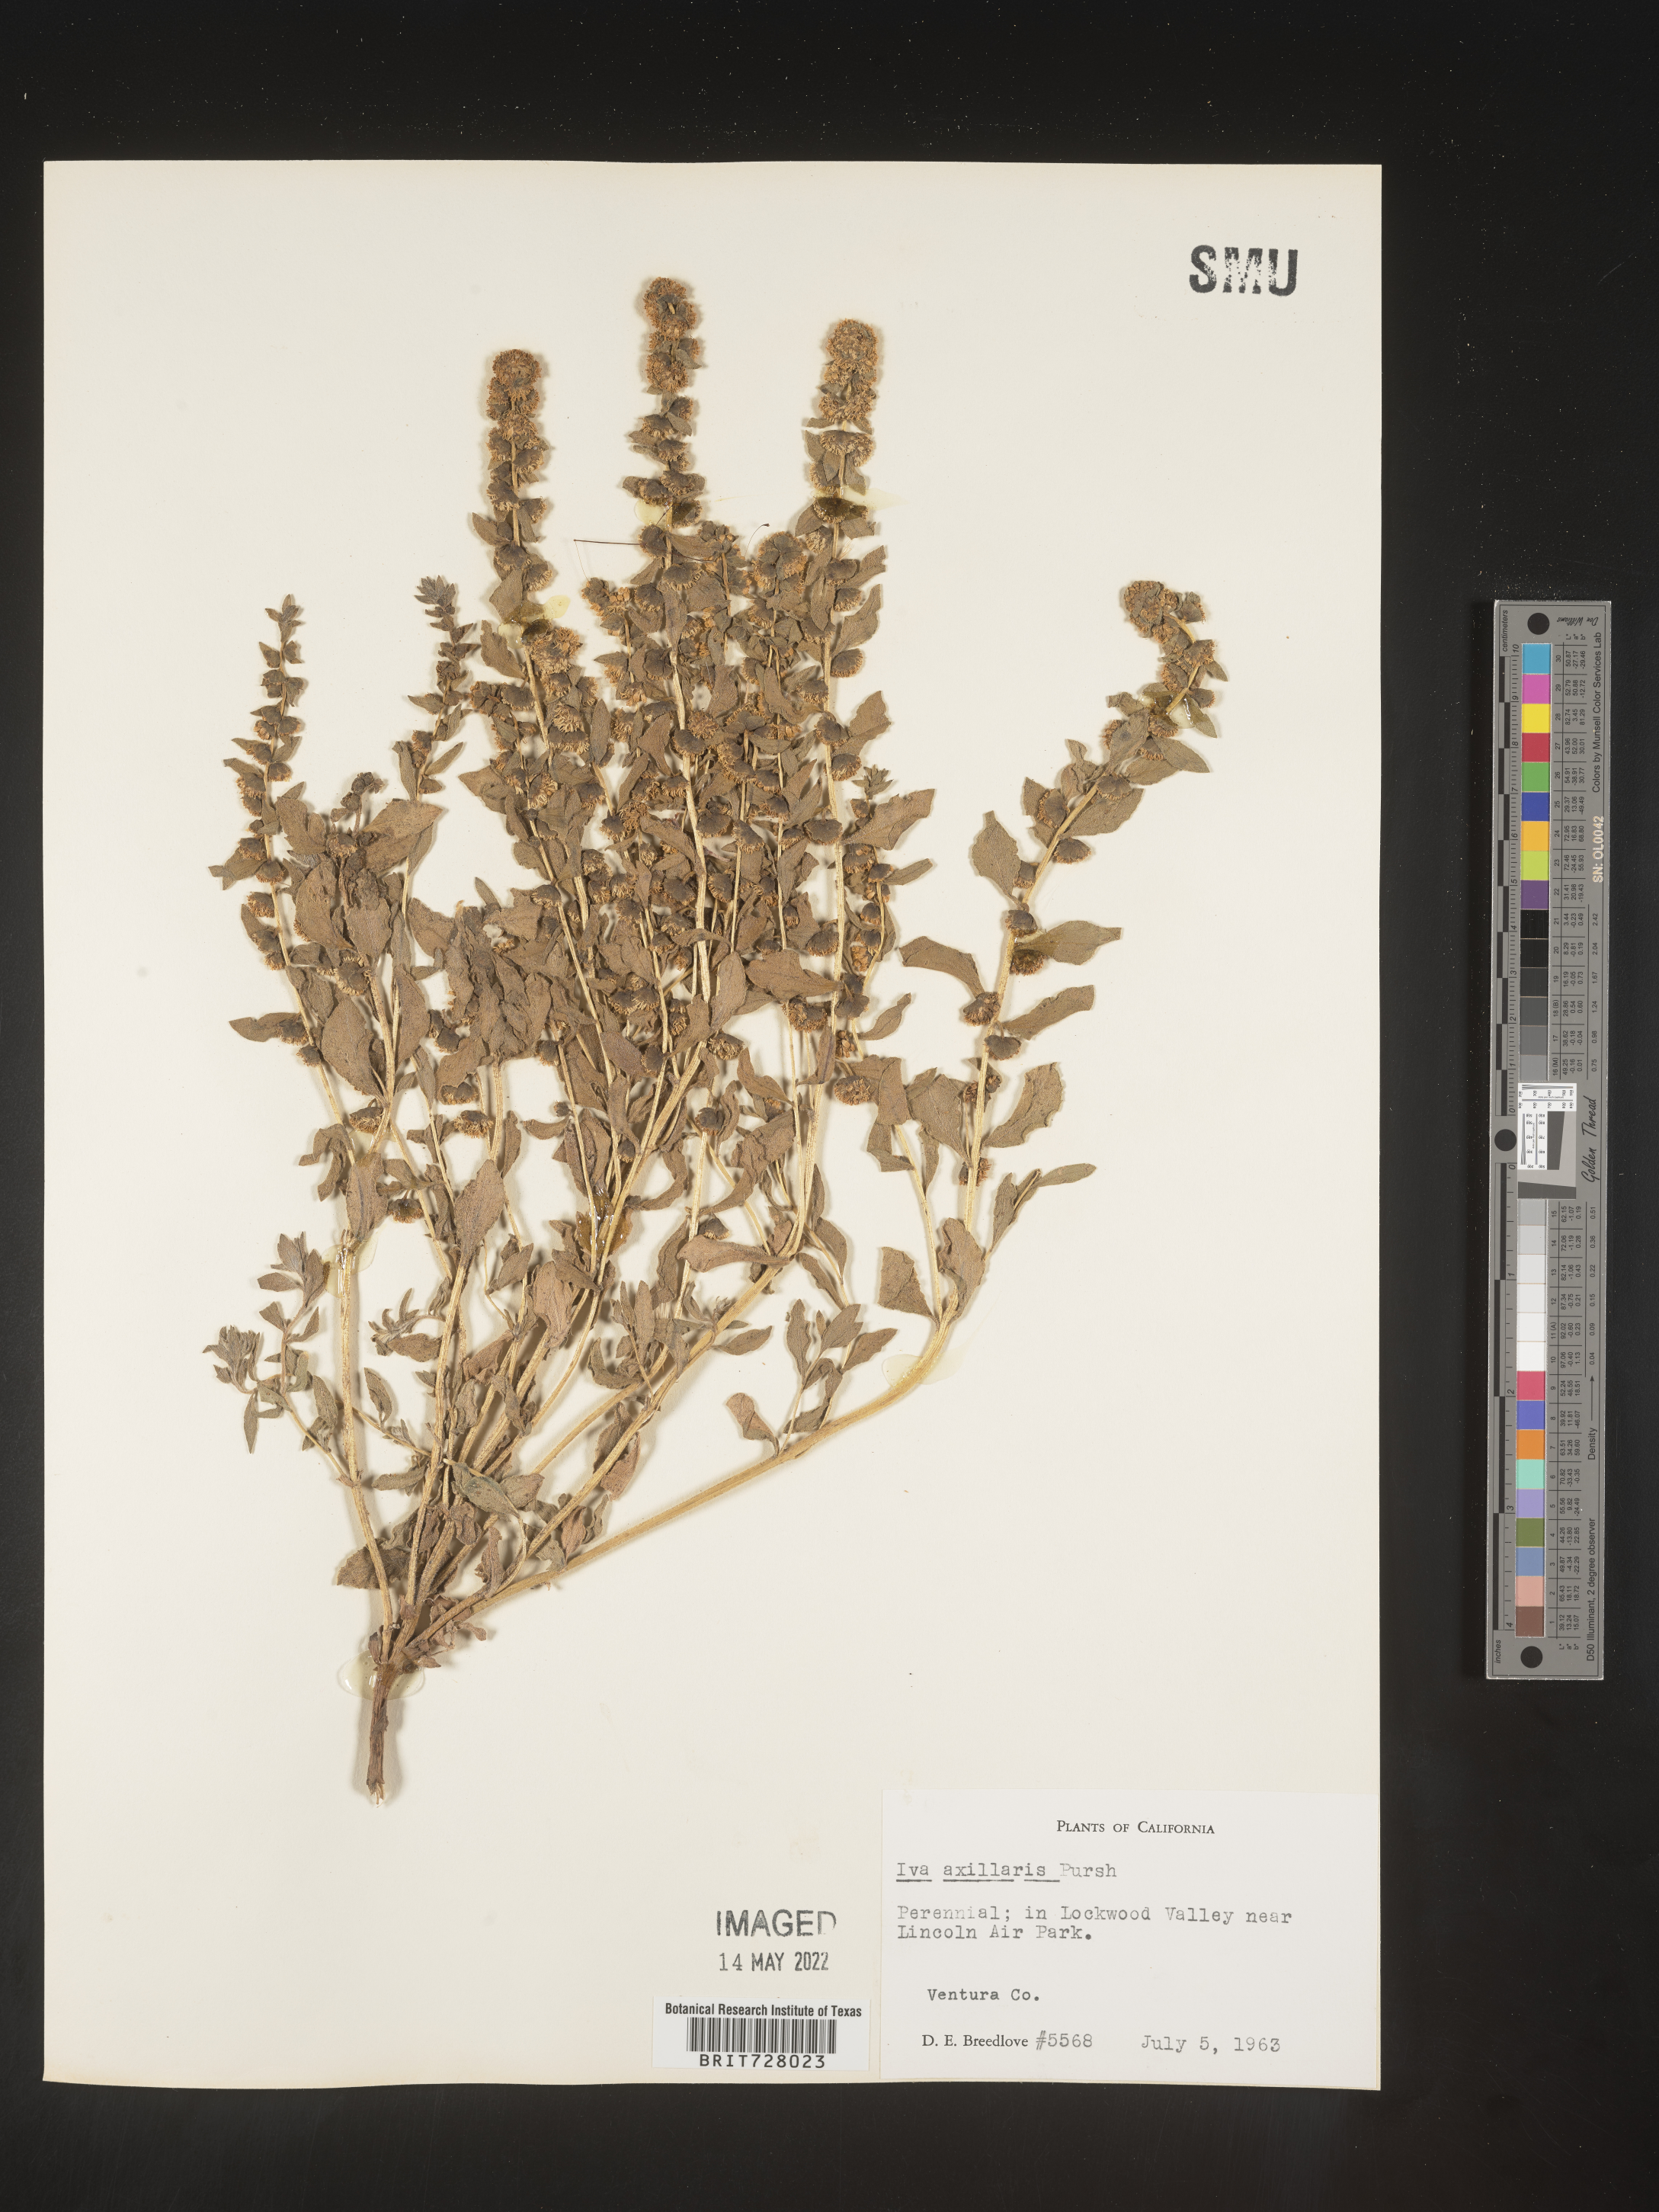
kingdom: Plantae
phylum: Tracheophyta
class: Magnoliopsida
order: Asterales
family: Asteraceae
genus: Iva
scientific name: Iva axillaris
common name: Poverty sumpweed
